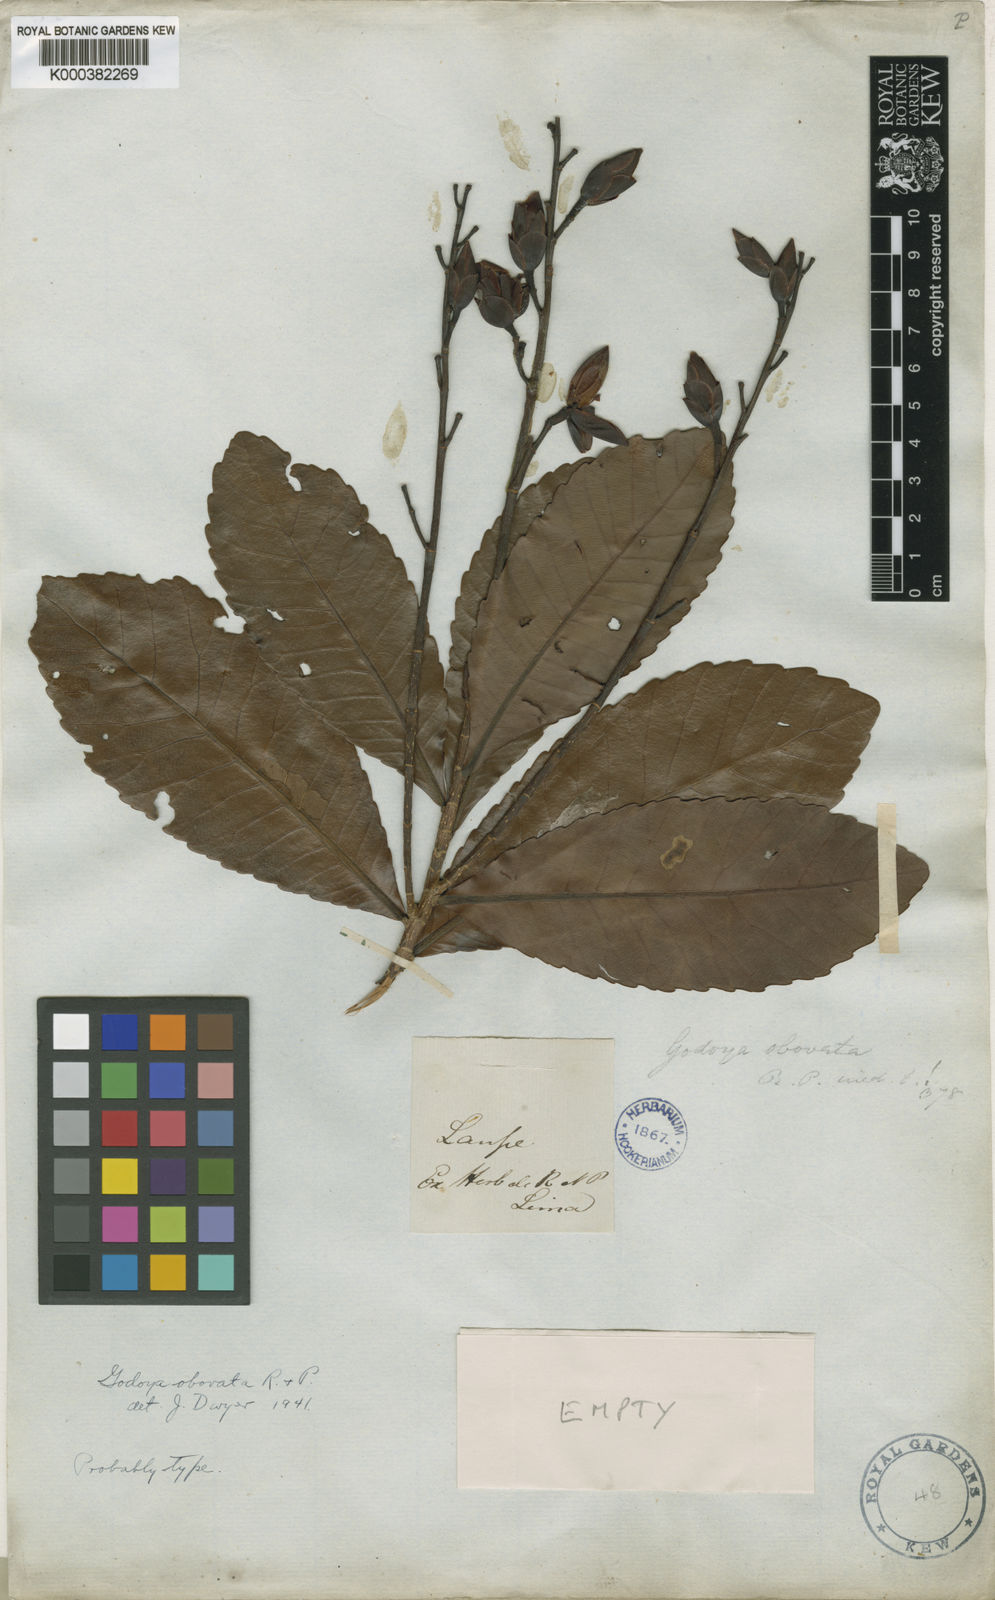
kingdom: Plantae
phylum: Tracheophyta
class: Magnoliopsida
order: Malpighiales
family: Ochnaceae
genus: Godoya
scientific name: Godoya obovata
